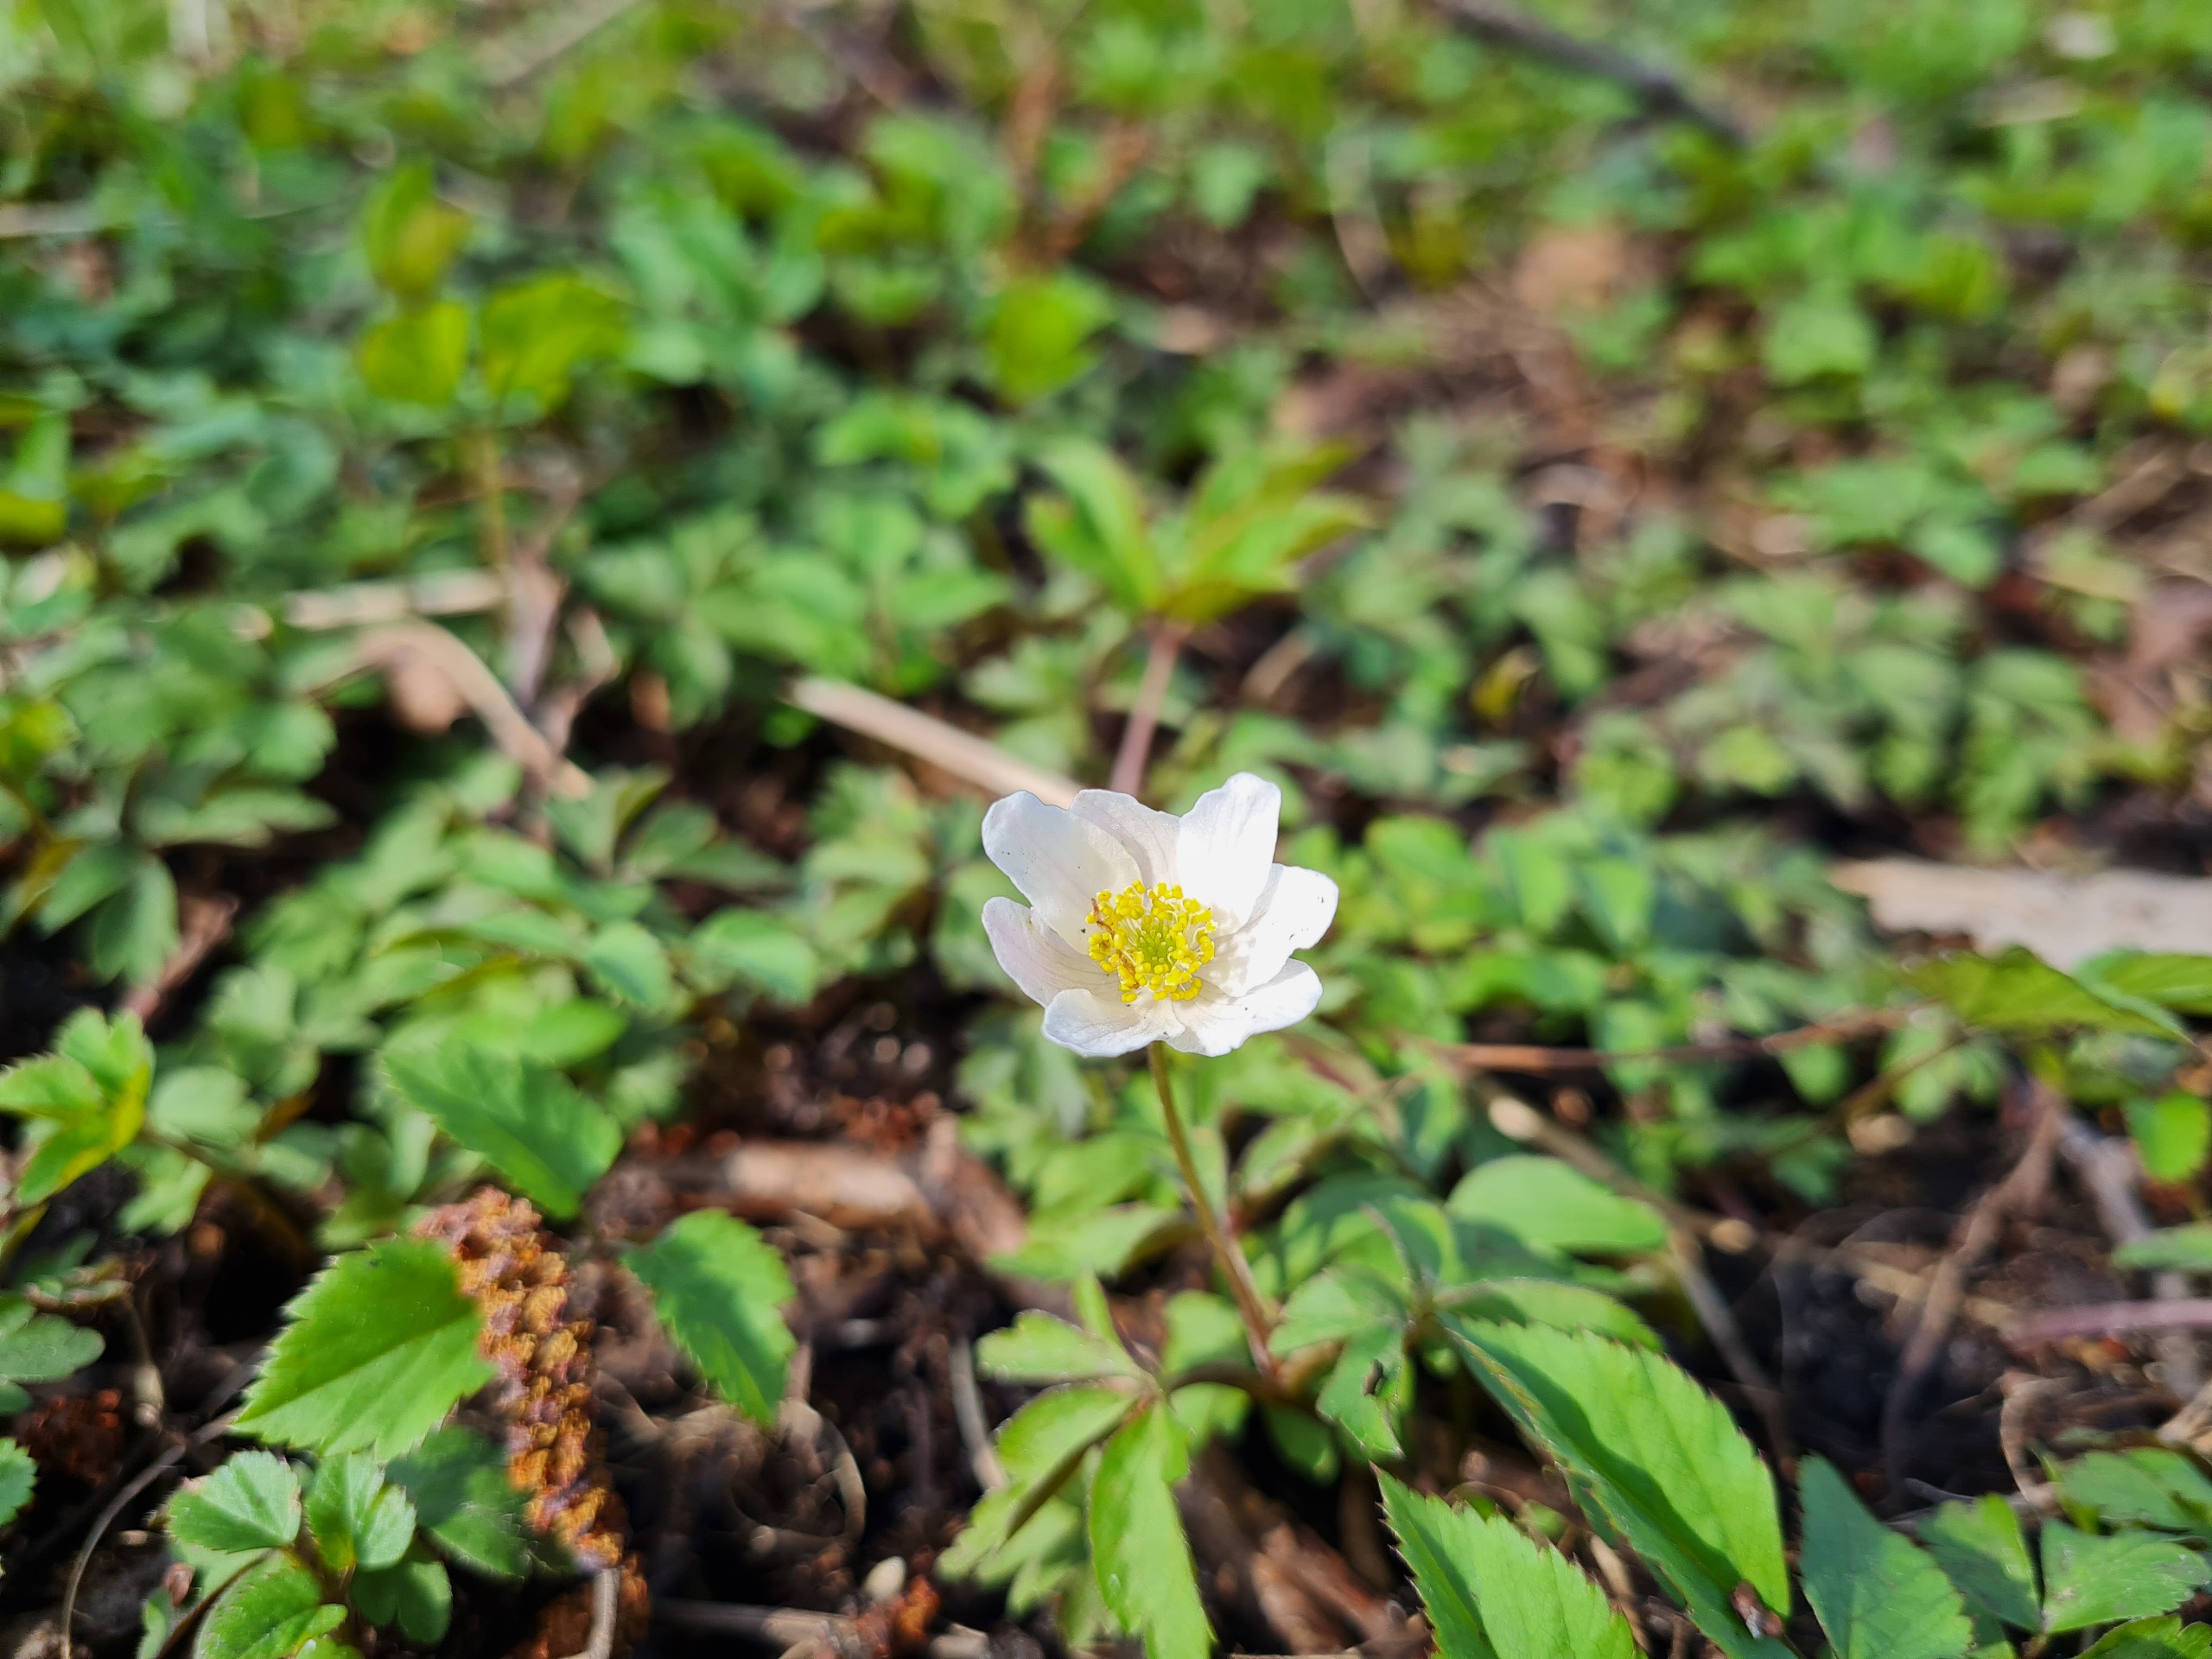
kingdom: Plantae
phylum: Tracheophyta
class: Magnoliopsida
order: Ranunculales
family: Ranunculaceae
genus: Anemone
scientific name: Anemone nemorosa
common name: Hvid anemone
